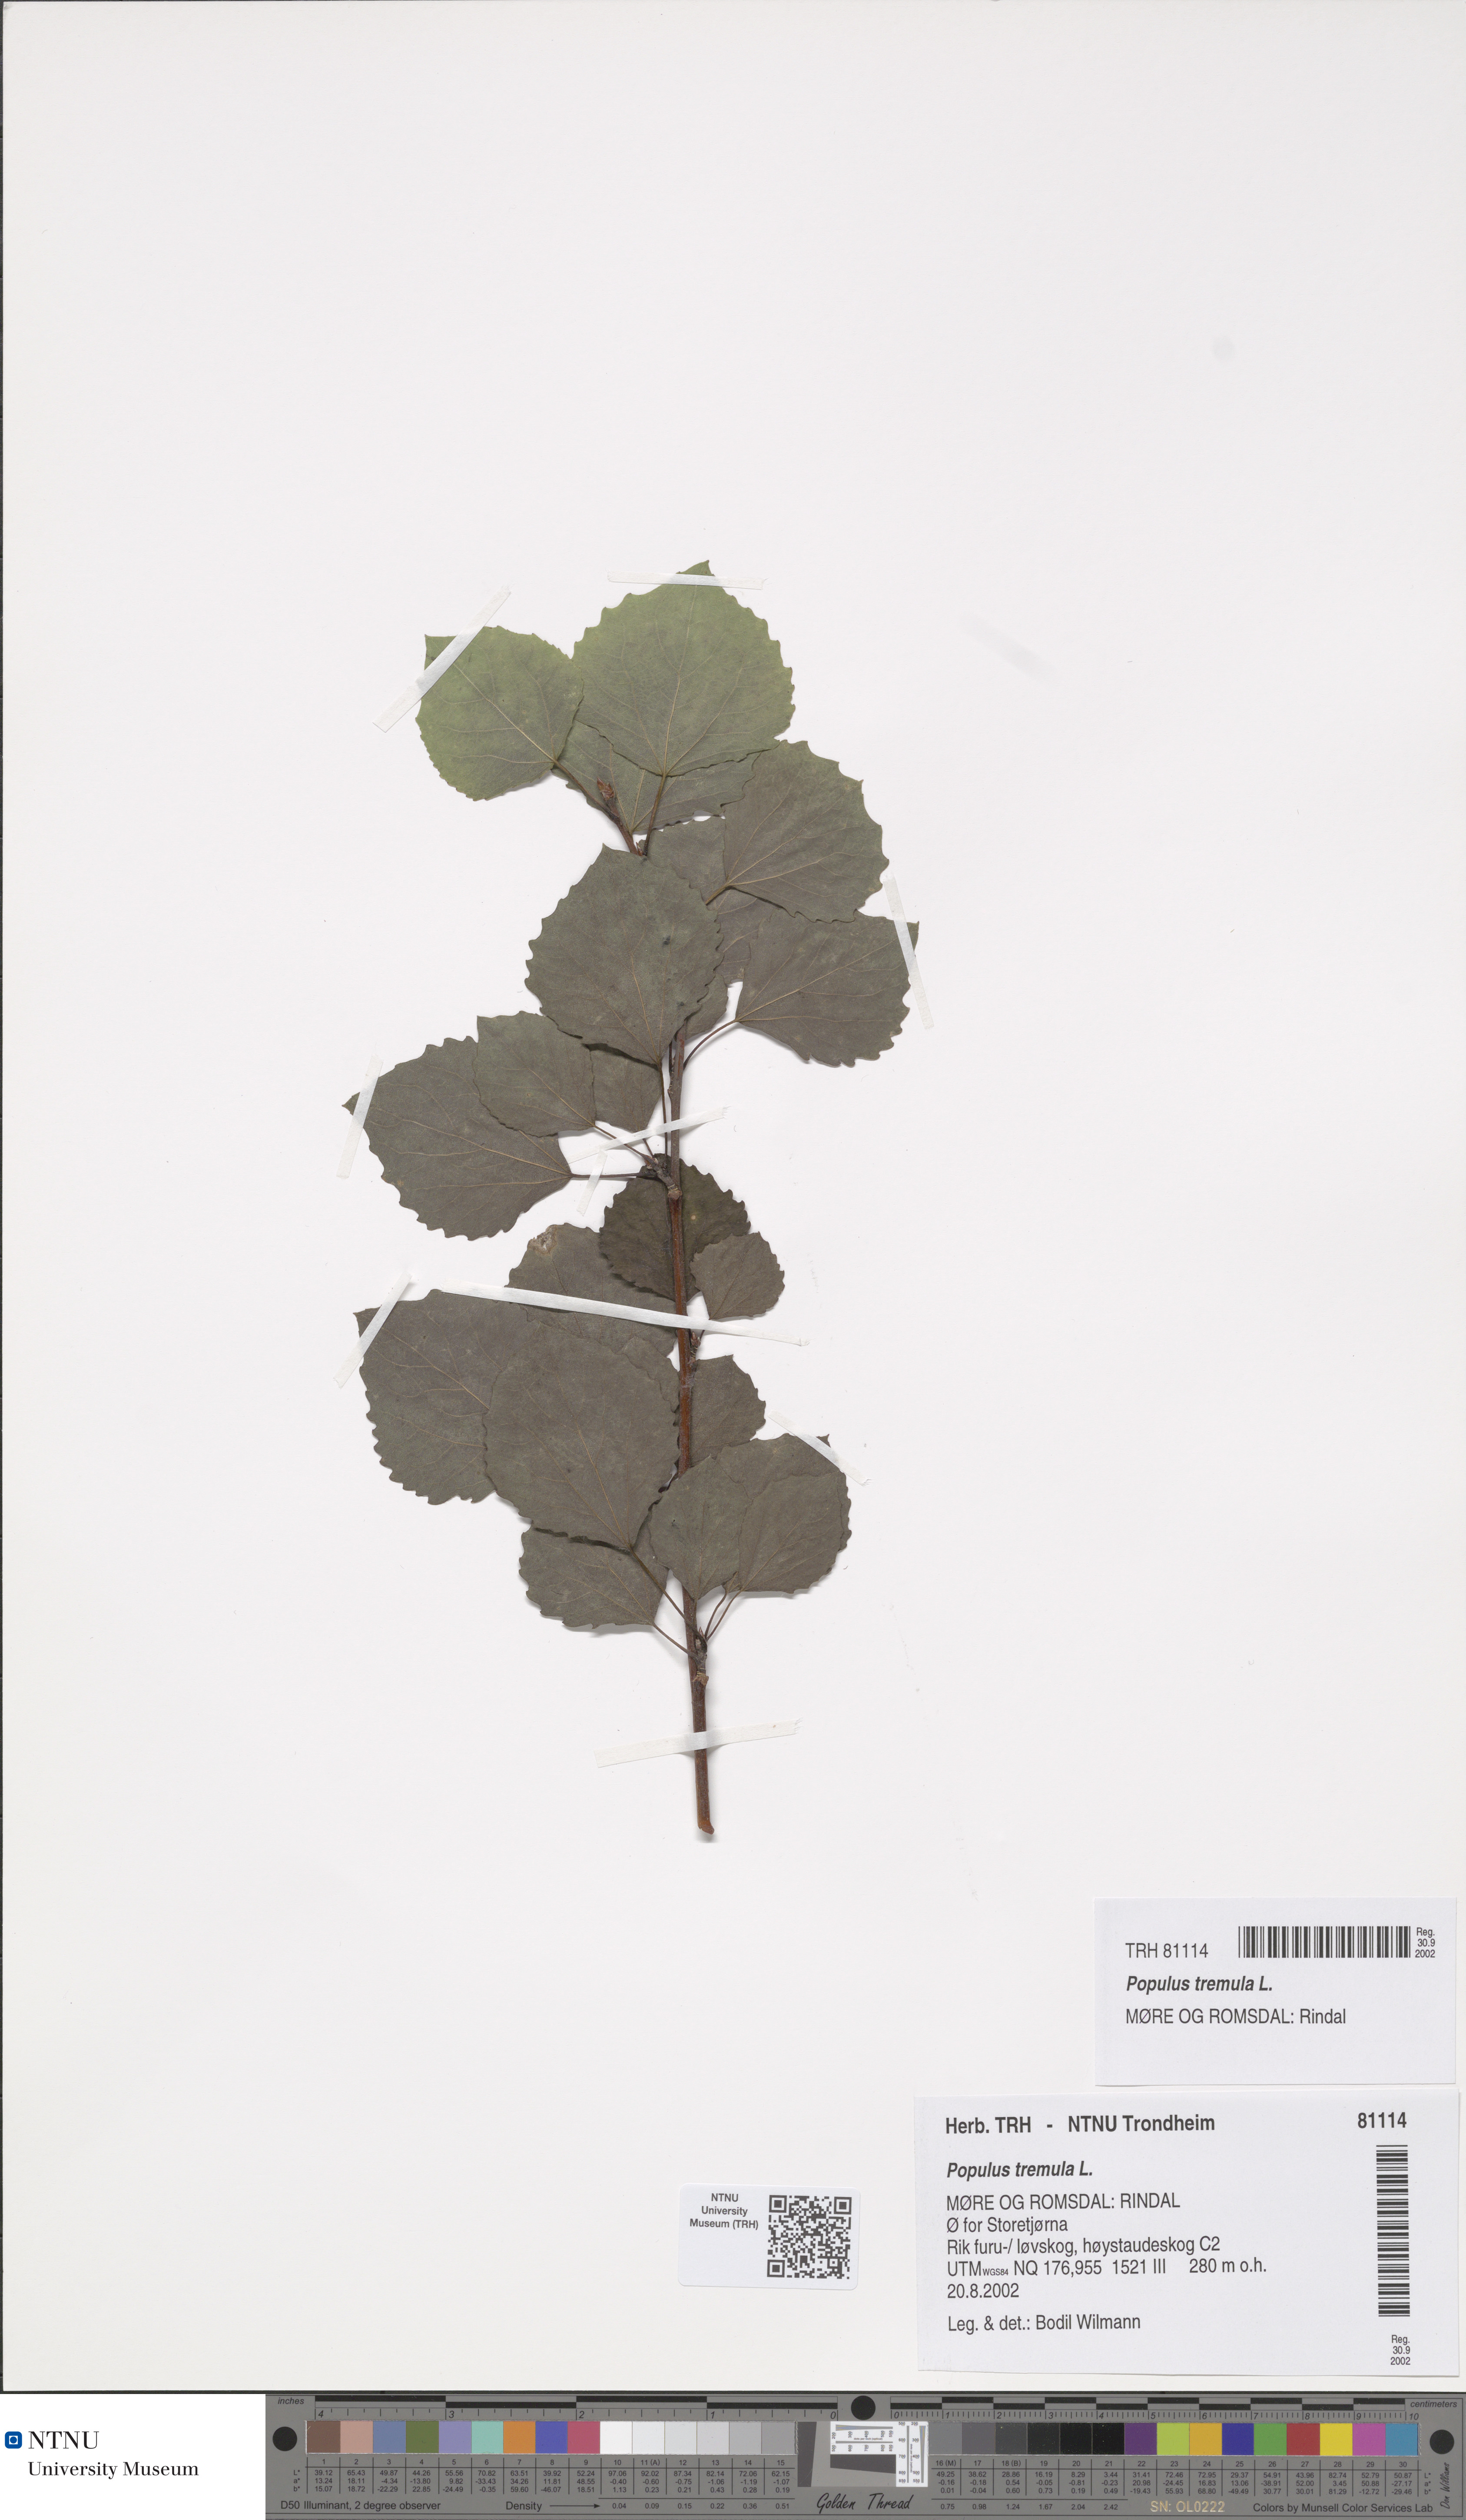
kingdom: Plantae
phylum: Tracheophyta
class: Magnoliopsida
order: Malpighiales
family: Salicaceae
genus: Populus
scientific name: Populus tremula
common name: European aspen
